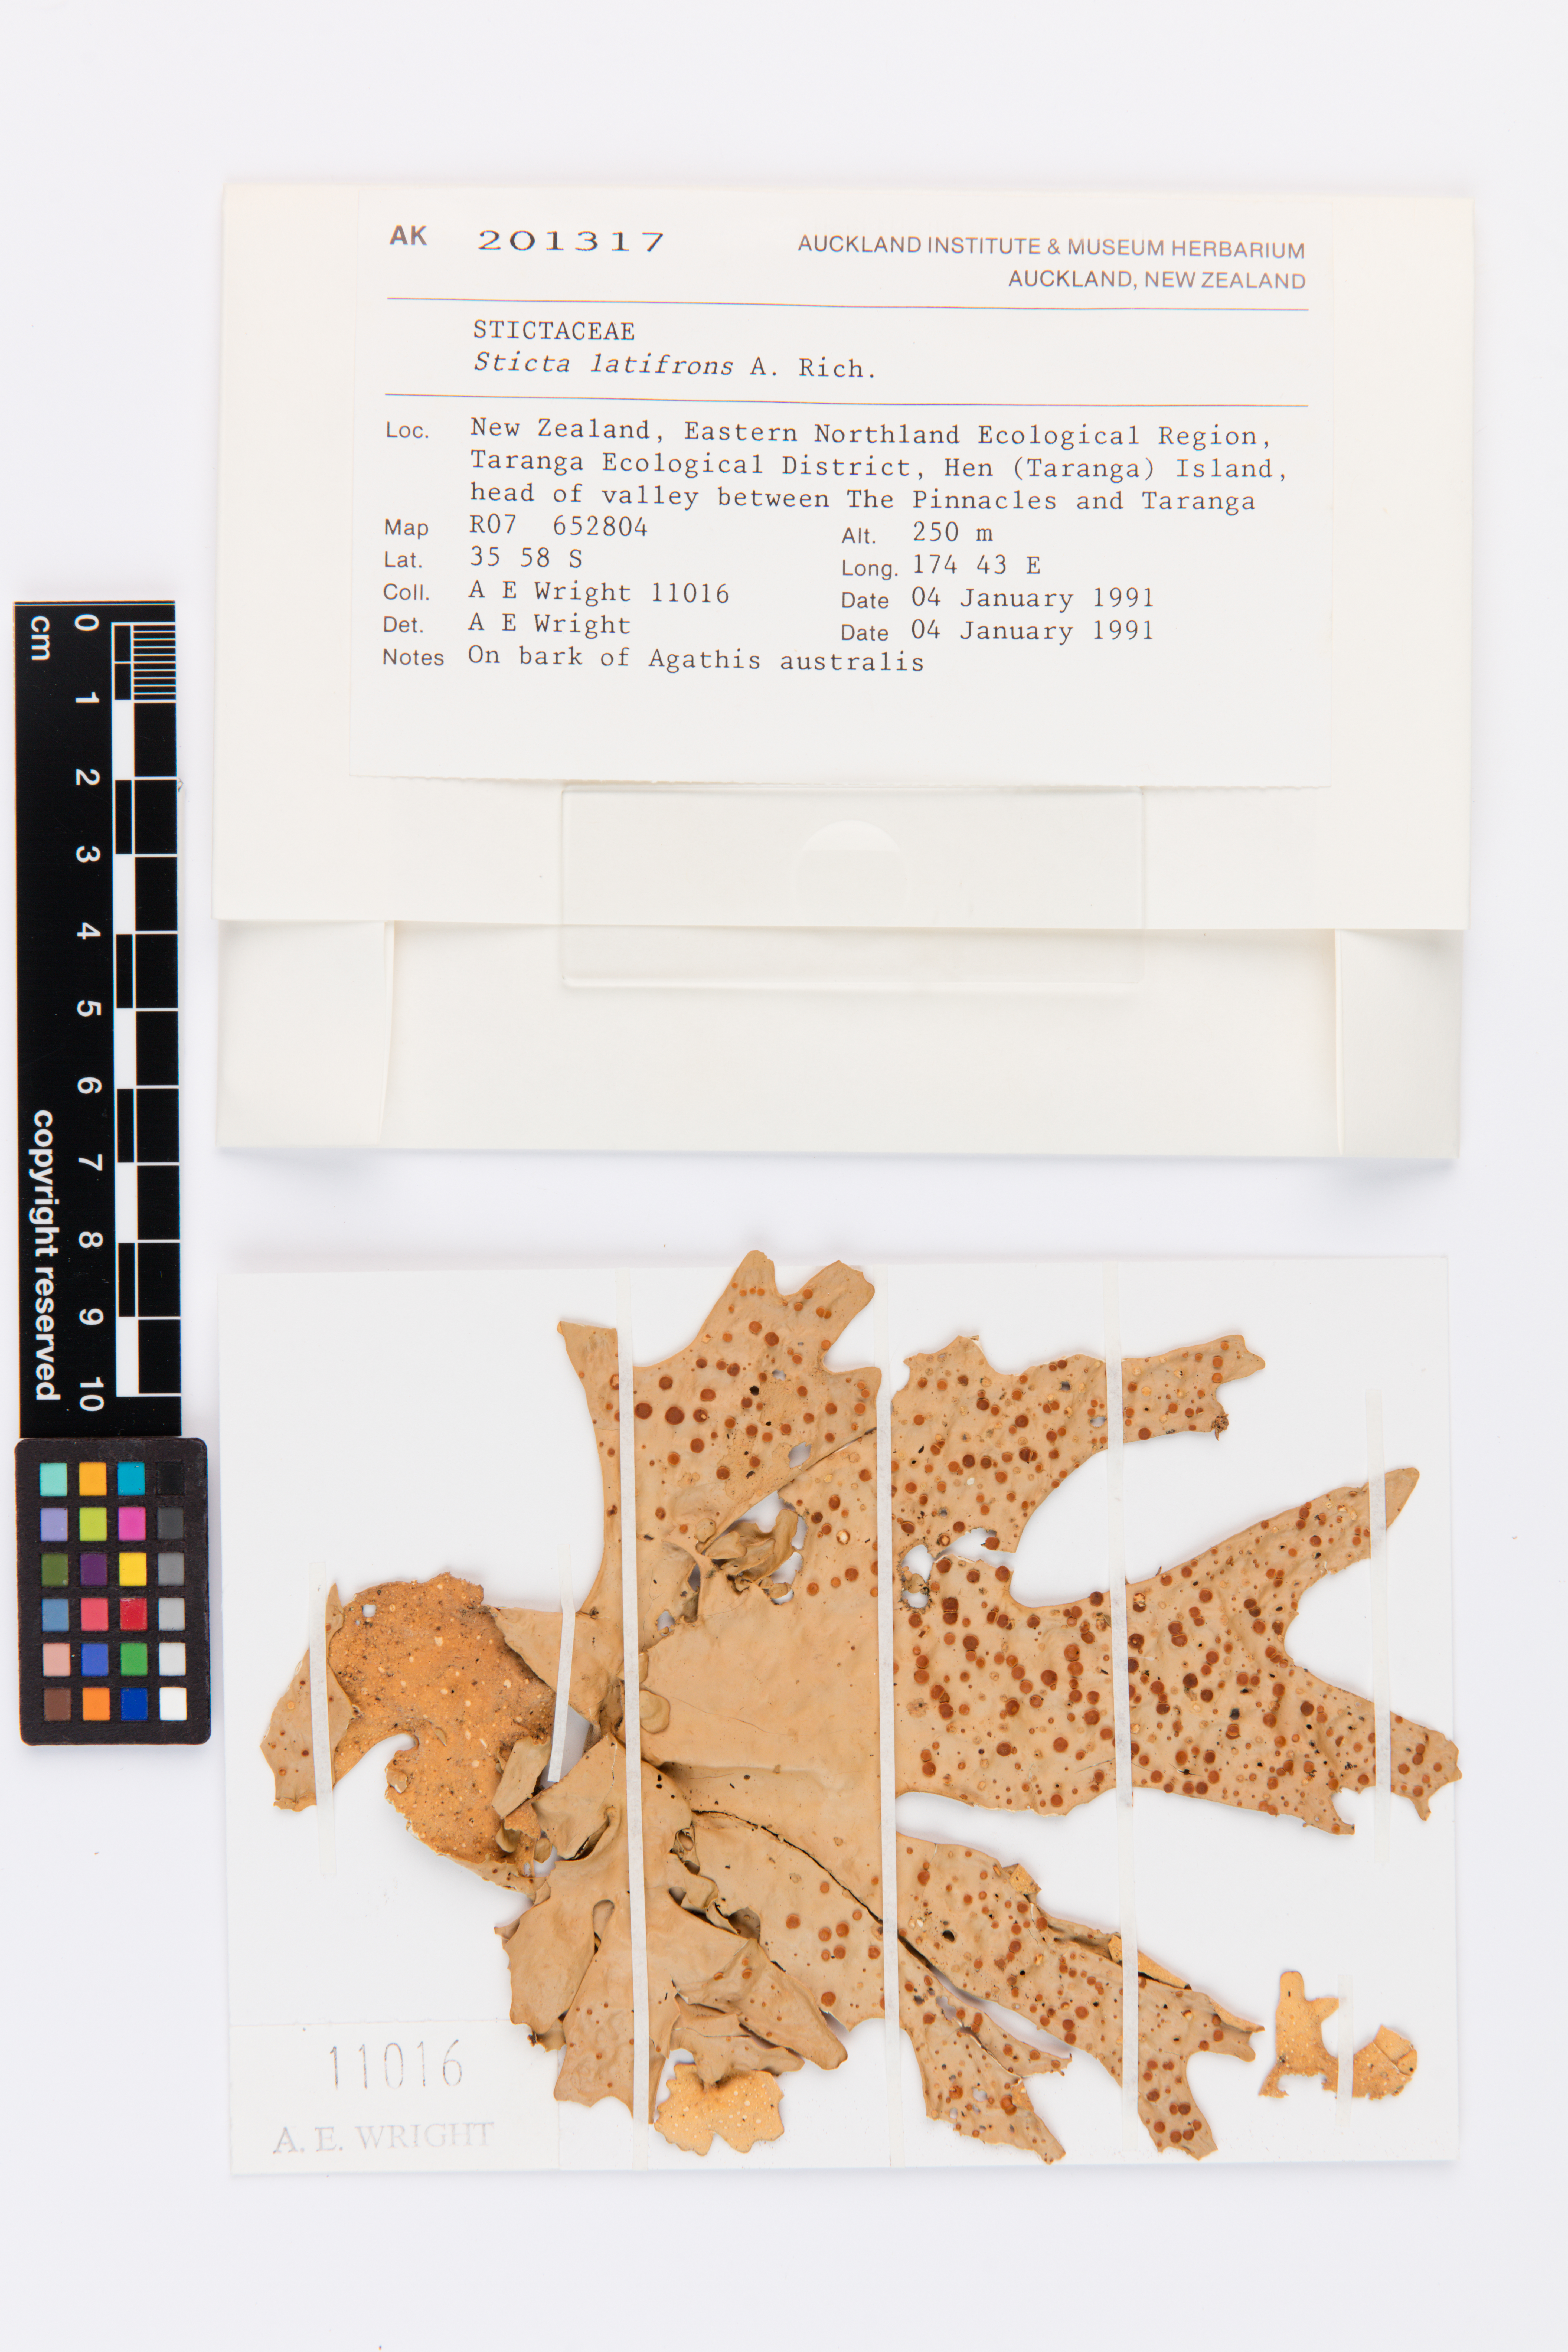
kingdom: Fungi
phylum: Ascomycota
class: Lecanoromycetes
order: Peltigerales
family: Lobariaceae
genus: Sticta
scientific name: Sticta latifrons
